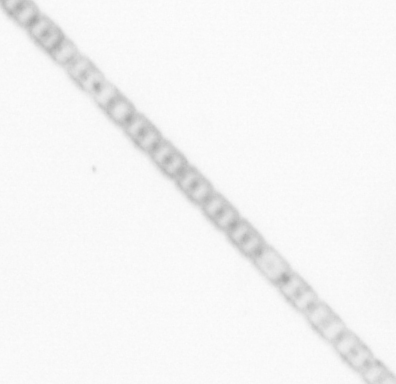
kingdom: Chromista
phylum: Ochrophyta
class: Bacillariophyceae
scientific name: Bacillariophyceae
